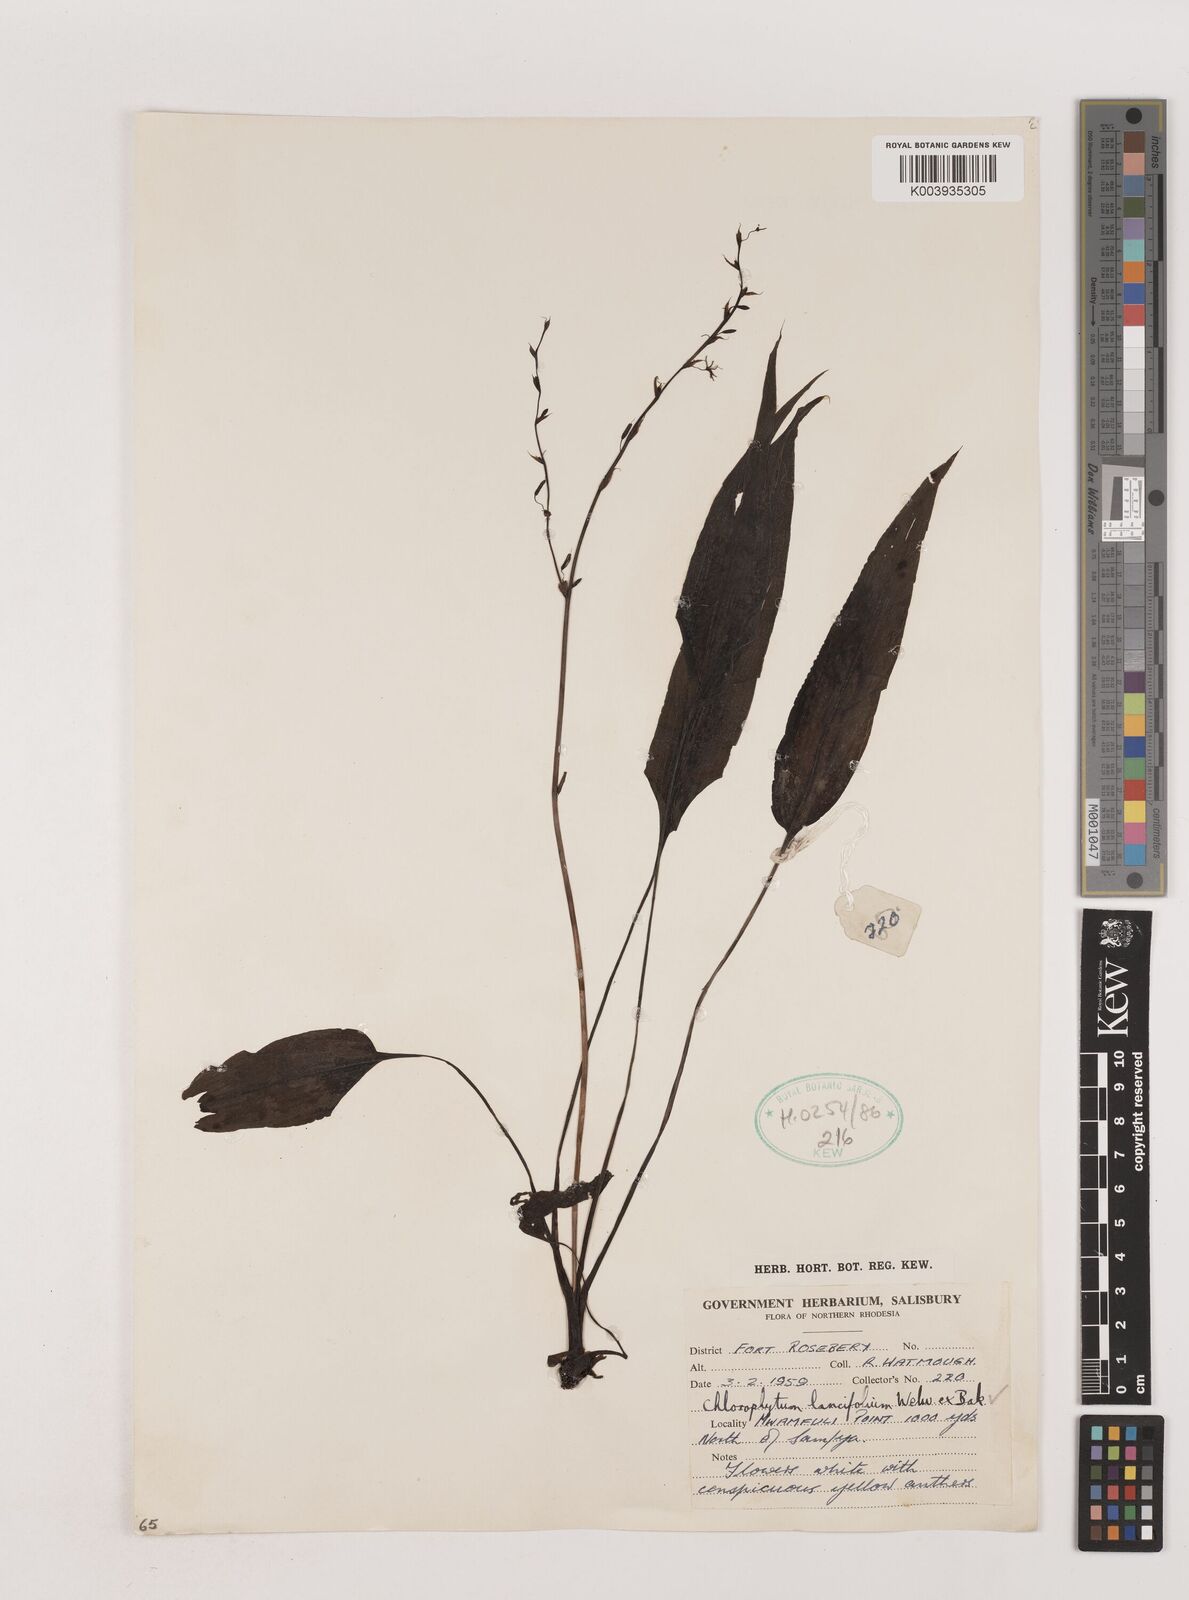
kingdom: Plantae
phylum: Tracheophyta
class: Liliopsida
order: Asparagales
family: Asparagaceae
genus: Chlorophytum
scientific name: Chlorophytum lancifolium
